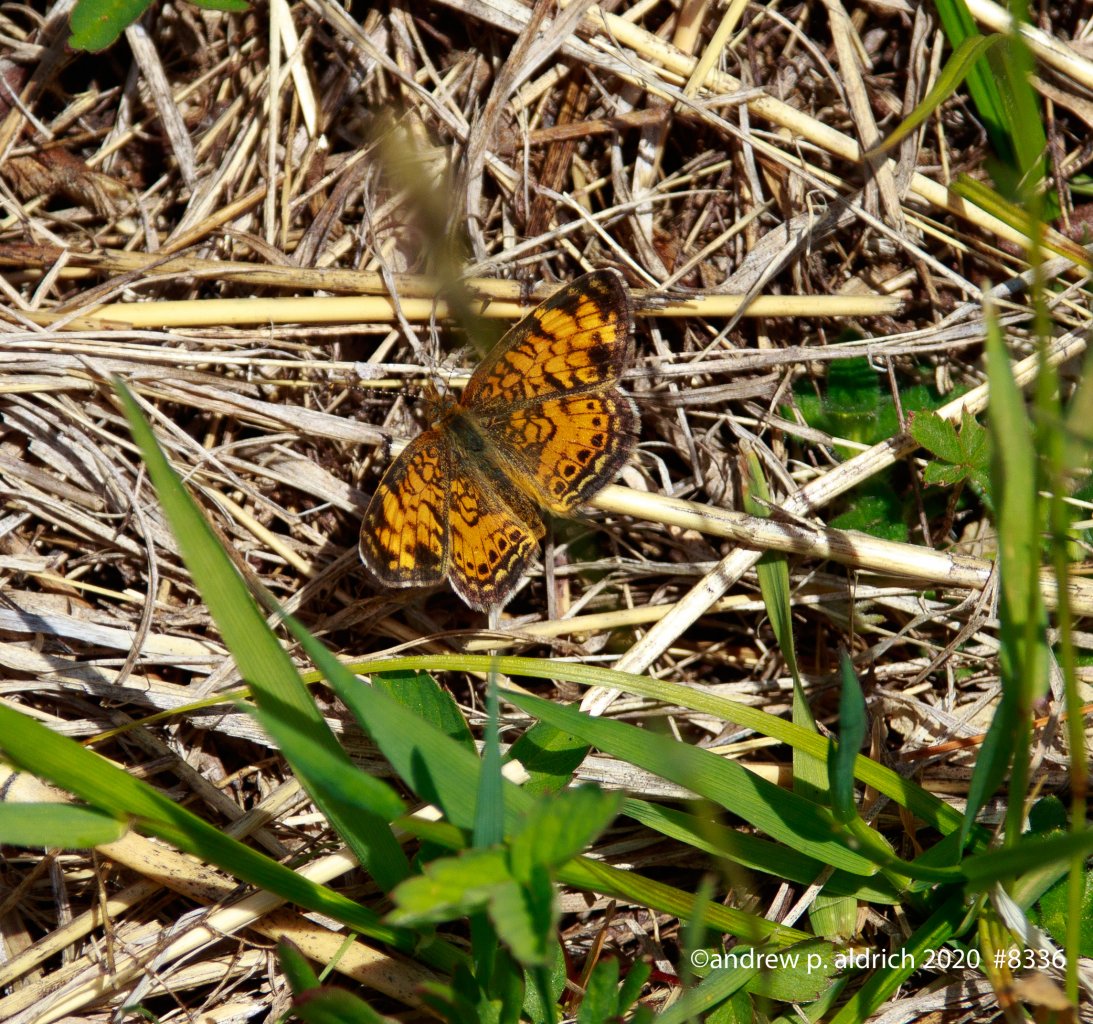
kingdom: Animalia
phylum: Arthropoda
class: Insecta
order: Lepidoptera
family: Nymphalidae
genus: Phyciodes
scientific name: Phyciodes
